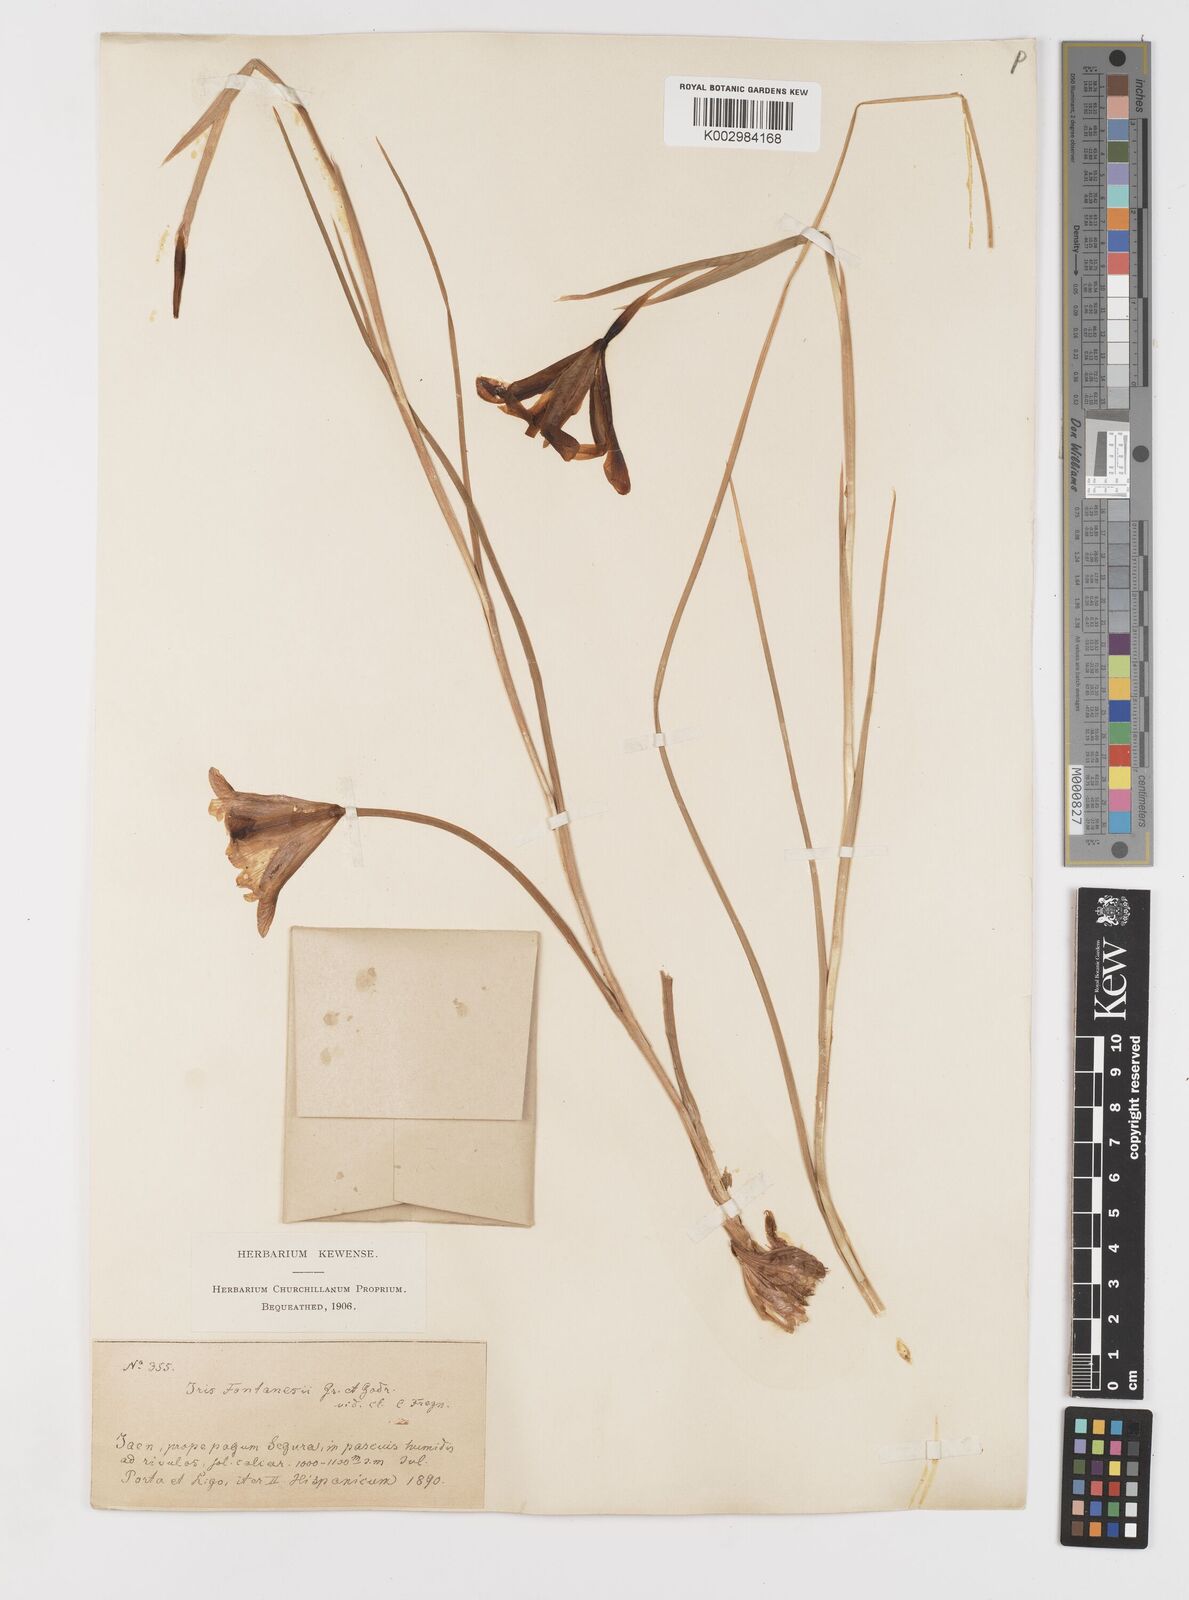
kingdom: Plantae
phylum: Tracheophyta
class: Liliopsida
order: Asparagales
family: Iridaceae
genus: Iris
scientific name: Iris xiphium
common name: Spanish iris
